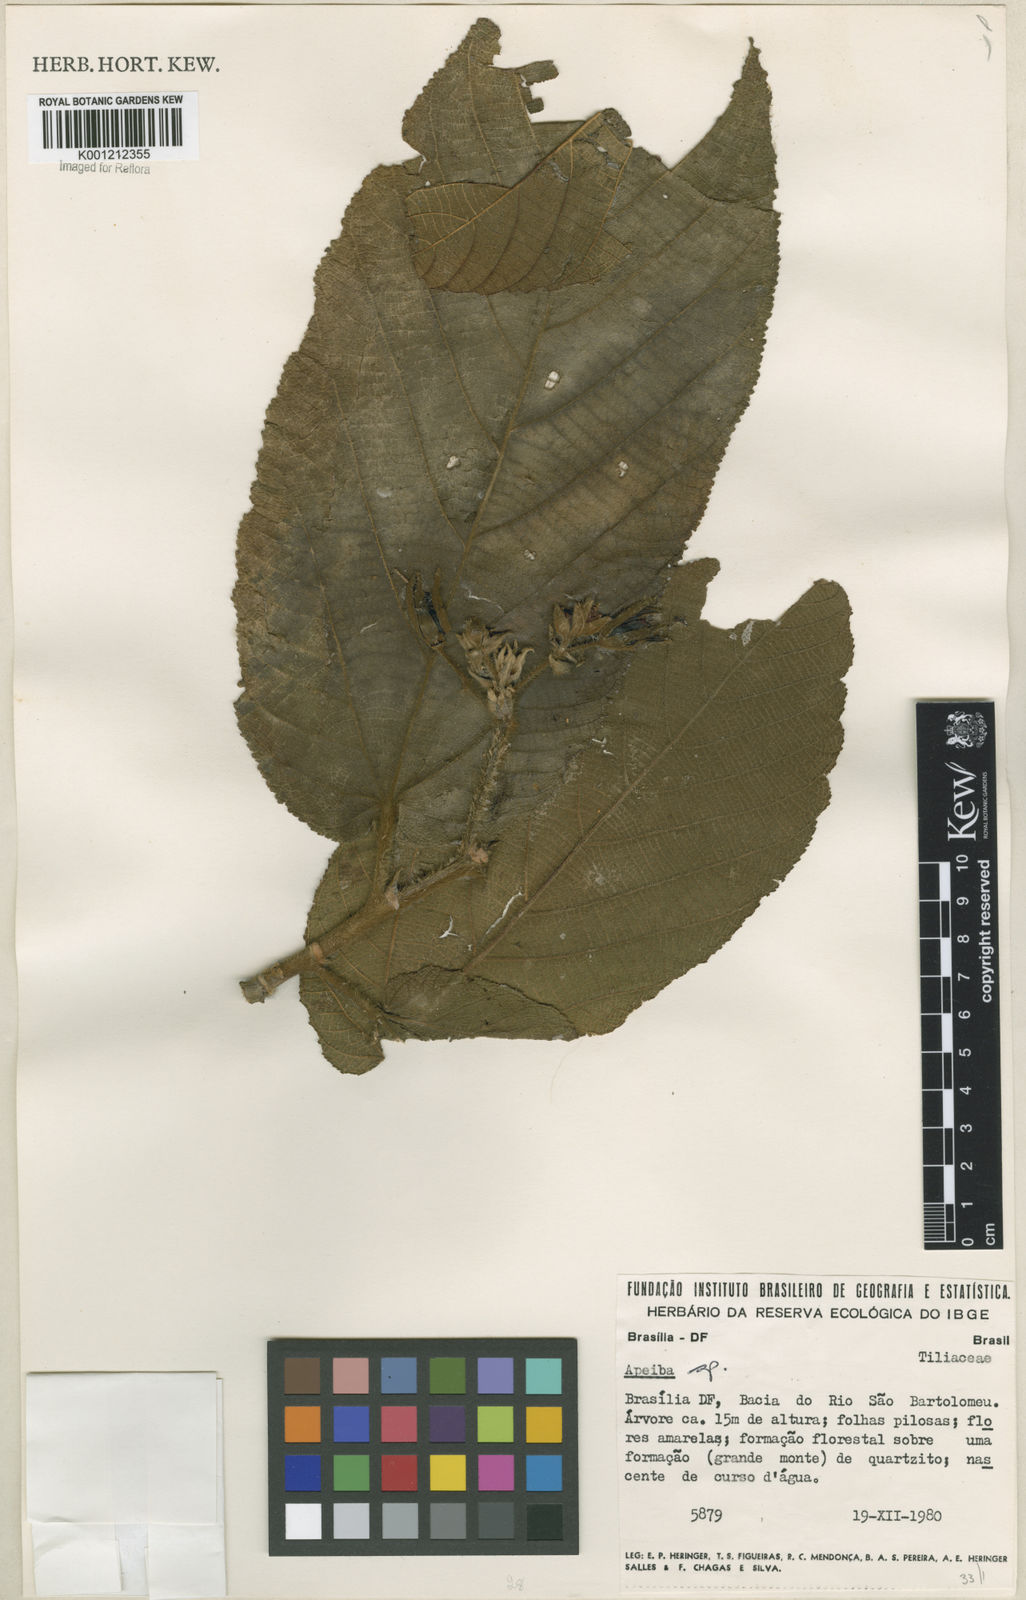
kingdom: Plantae
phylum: Tracheophyta
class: Magnoliopsida
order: Malvales
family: Malvaceae
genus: Apeiba
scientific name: Apeiba
